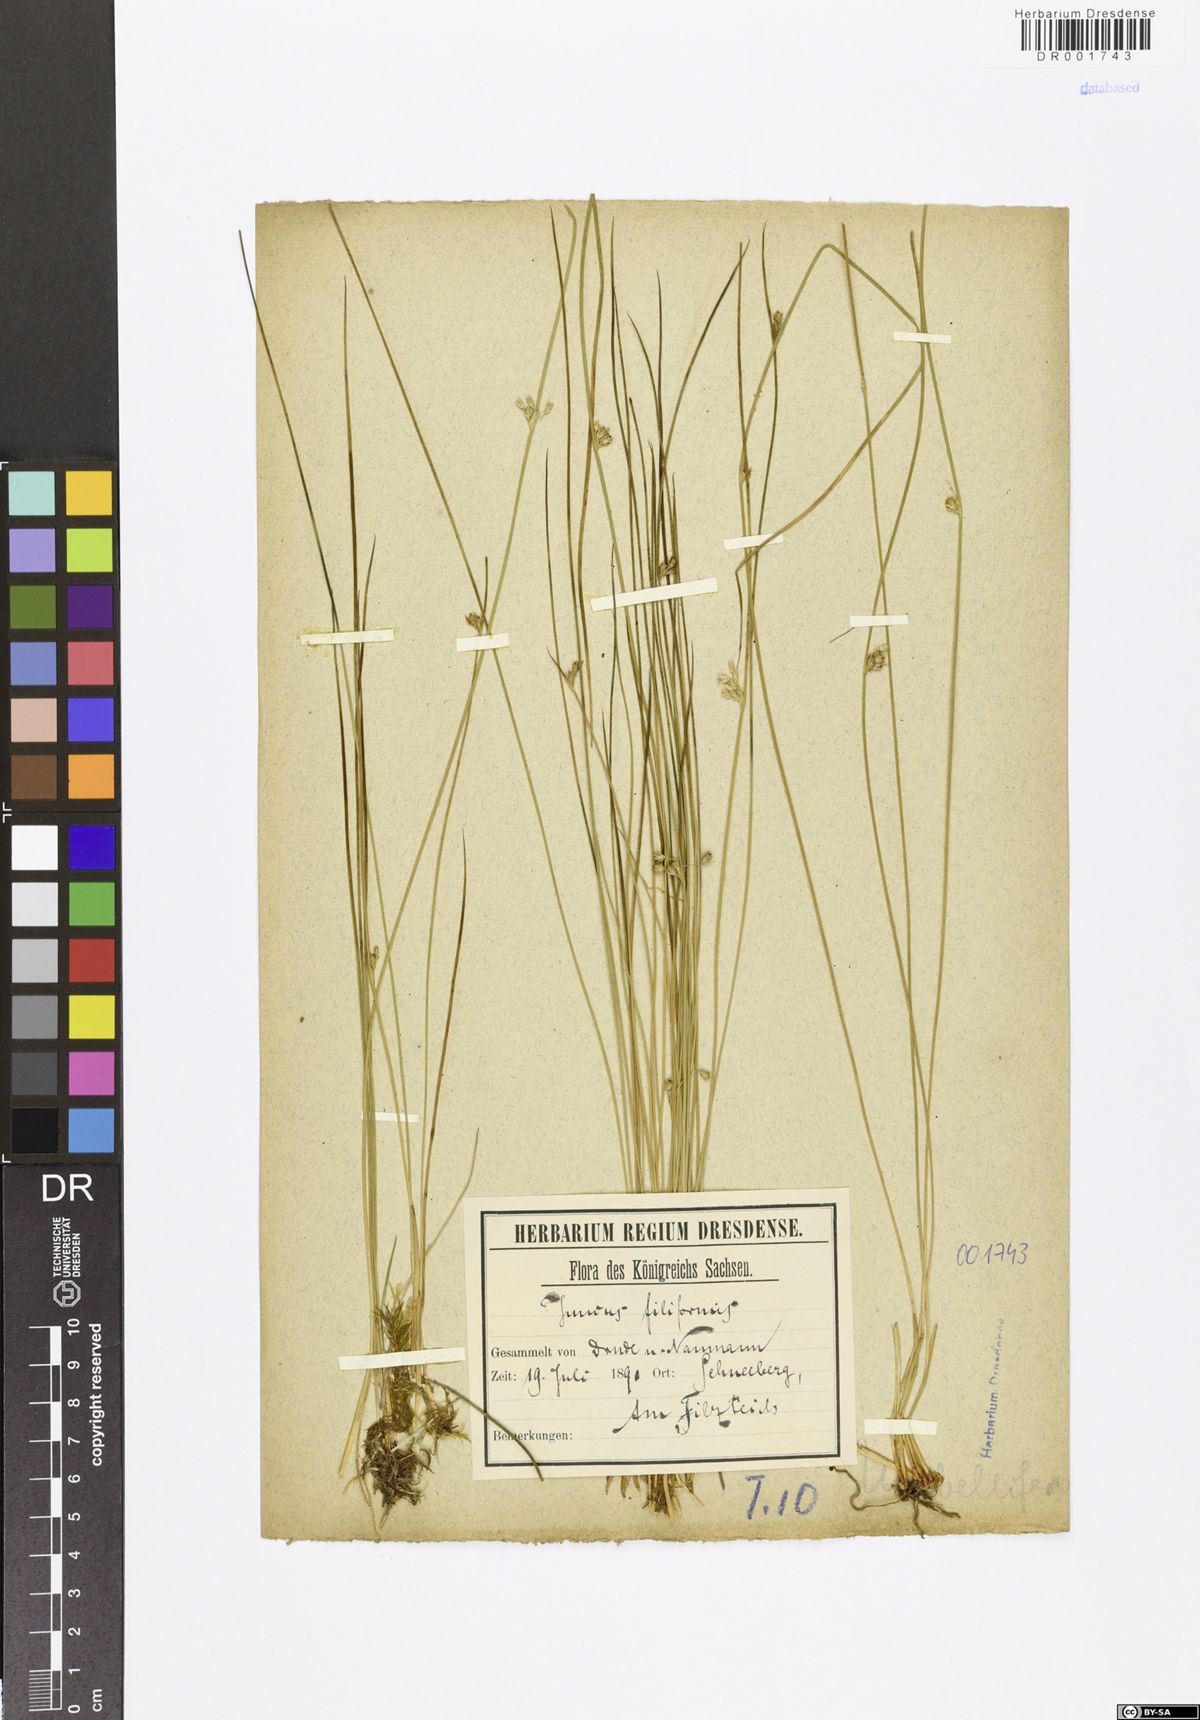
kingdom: Plantae
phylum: Tracheophyta
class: Liliopsida
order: Poales
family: Juncaceae
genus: Juncus
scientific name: Juncus inflexus
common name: Hard rush
